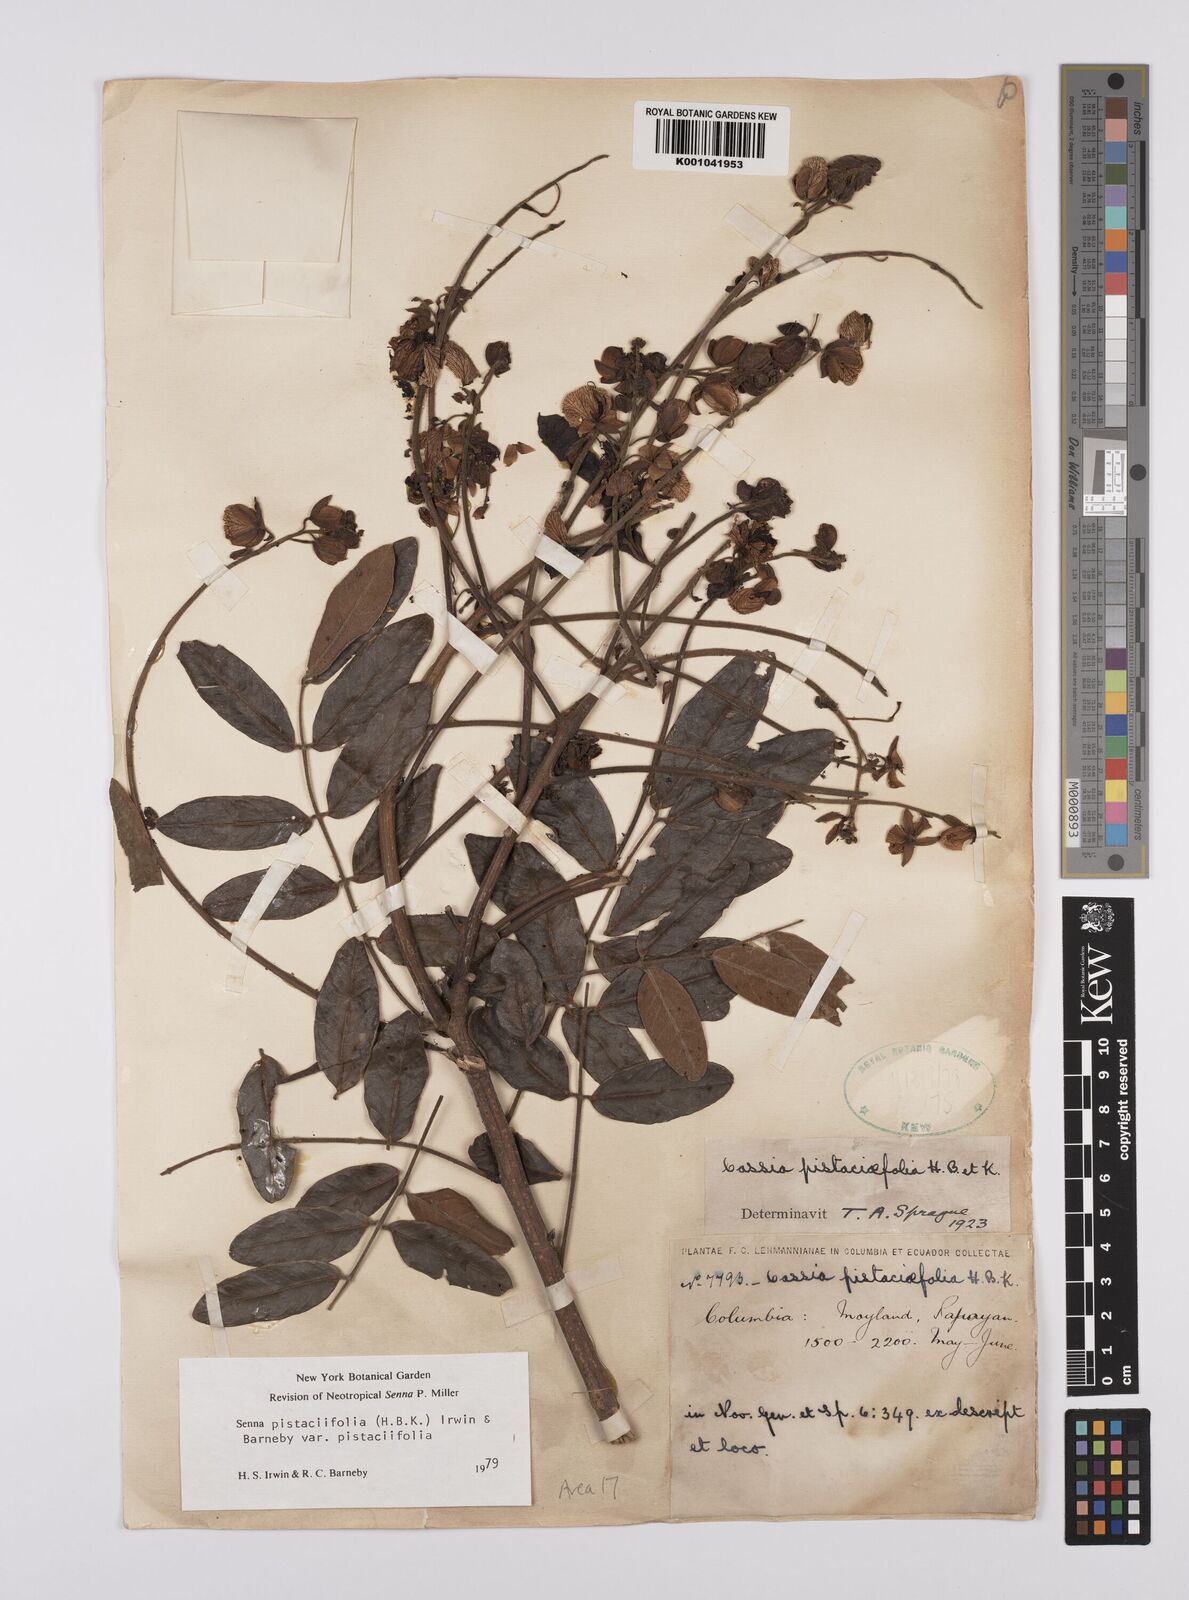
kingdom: Plantae
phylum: Tracheophyta
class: Magnoliopsida
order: Fabales
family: Fabaceae
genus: Senna
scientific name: Senna pistaciifolia
